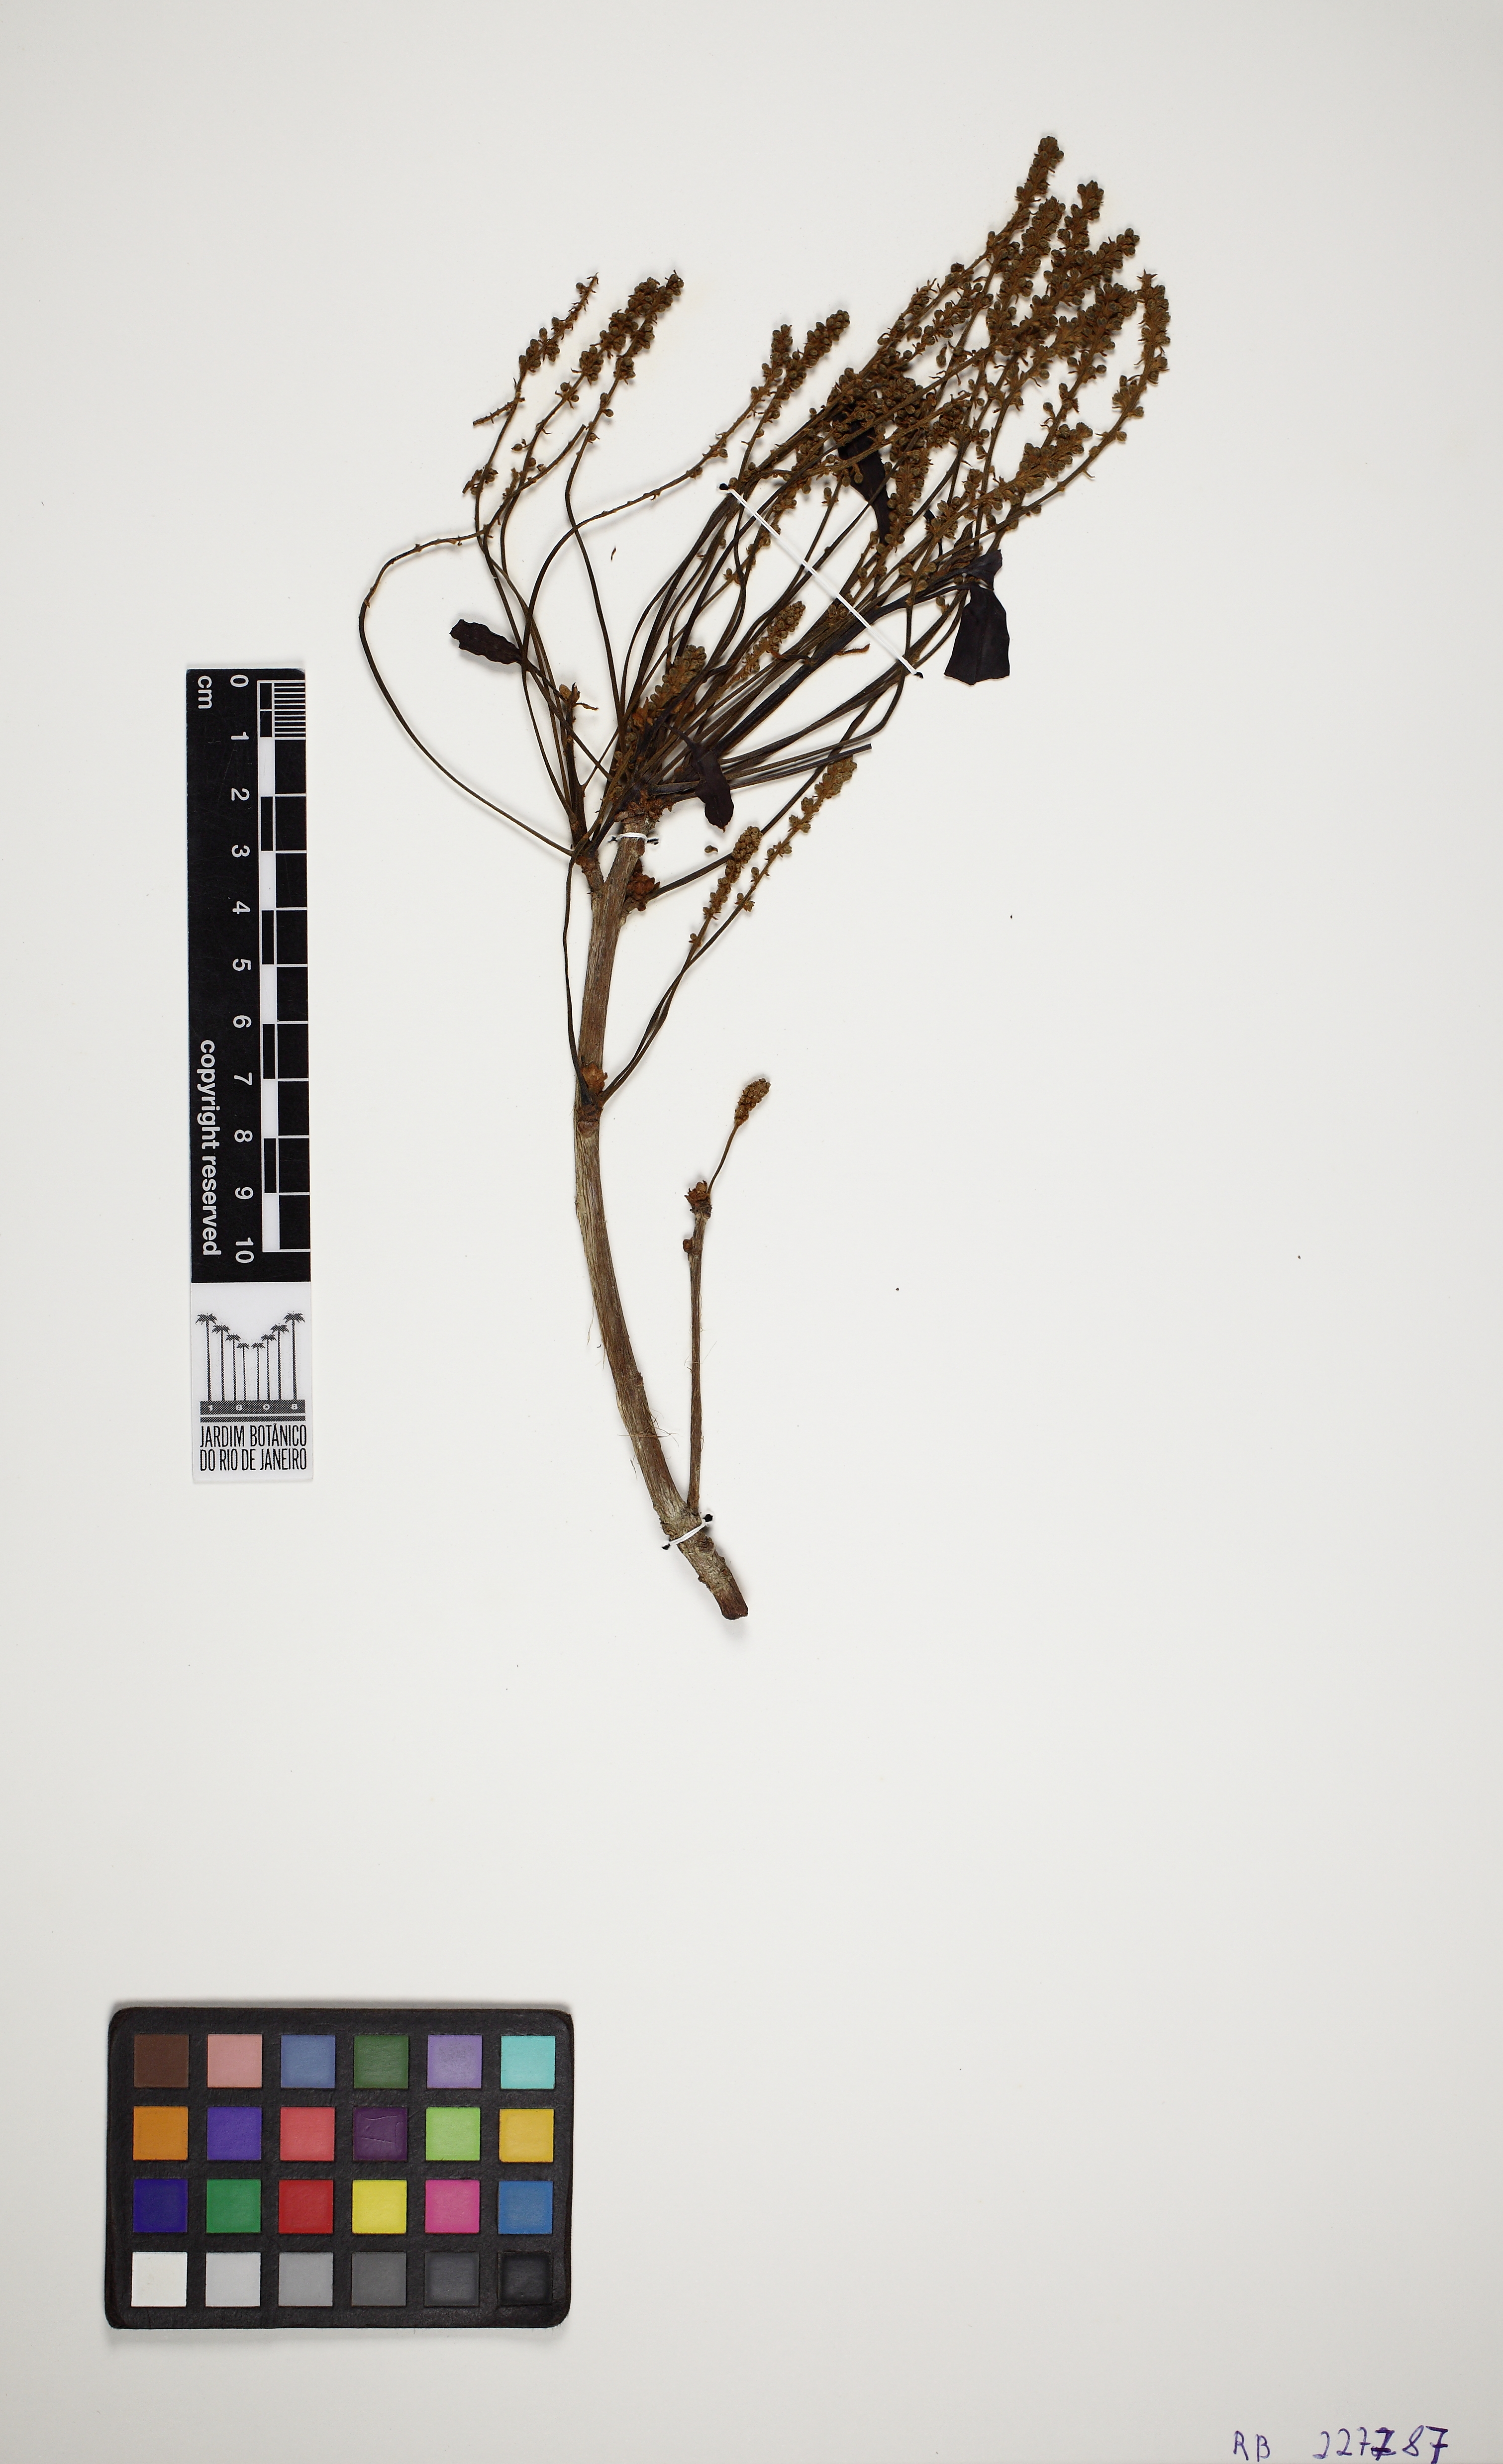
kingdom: Plantae
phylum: Tracheophyta
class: Magnoliopsida
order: Myrtales
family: Combretaceae
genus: Terminalia
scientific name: Terminalia glabrescens
